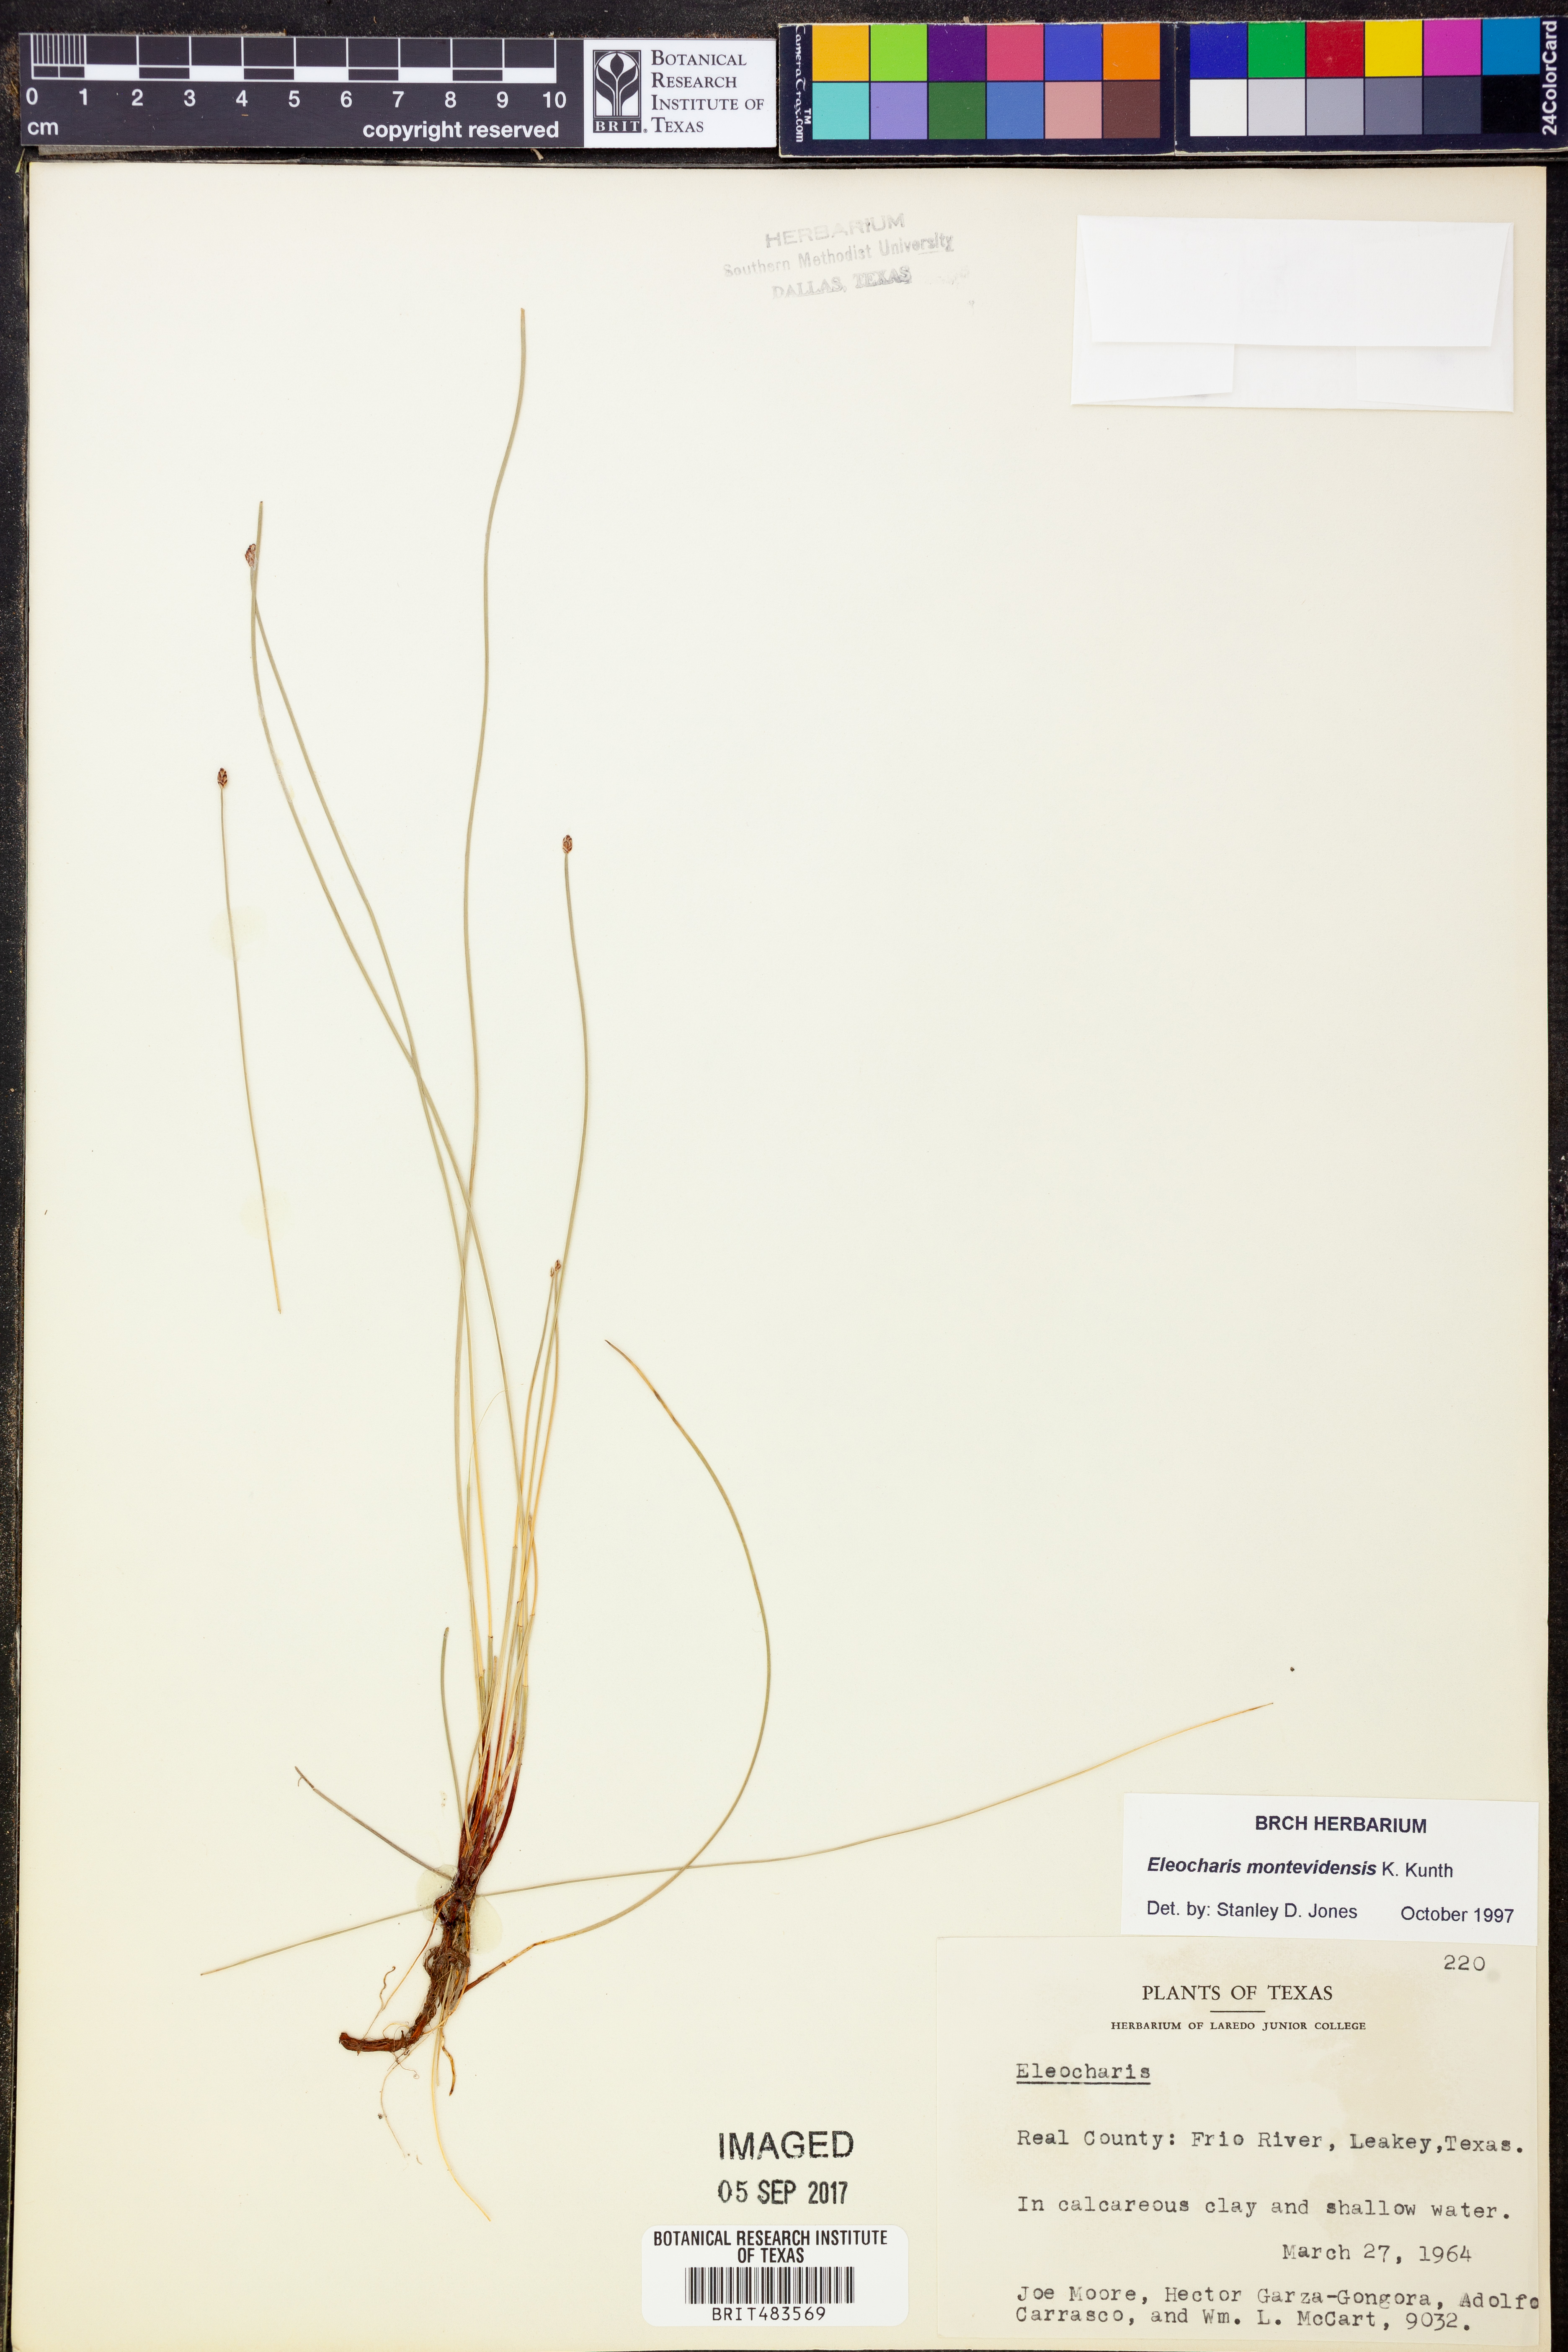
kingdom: Plantae
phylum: Tracheophyta
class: Liliopsida
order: Poales
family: Cyperaceae
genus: Eleocharis
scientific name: Eleocharis montevidensis
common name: Sand spike-rush
